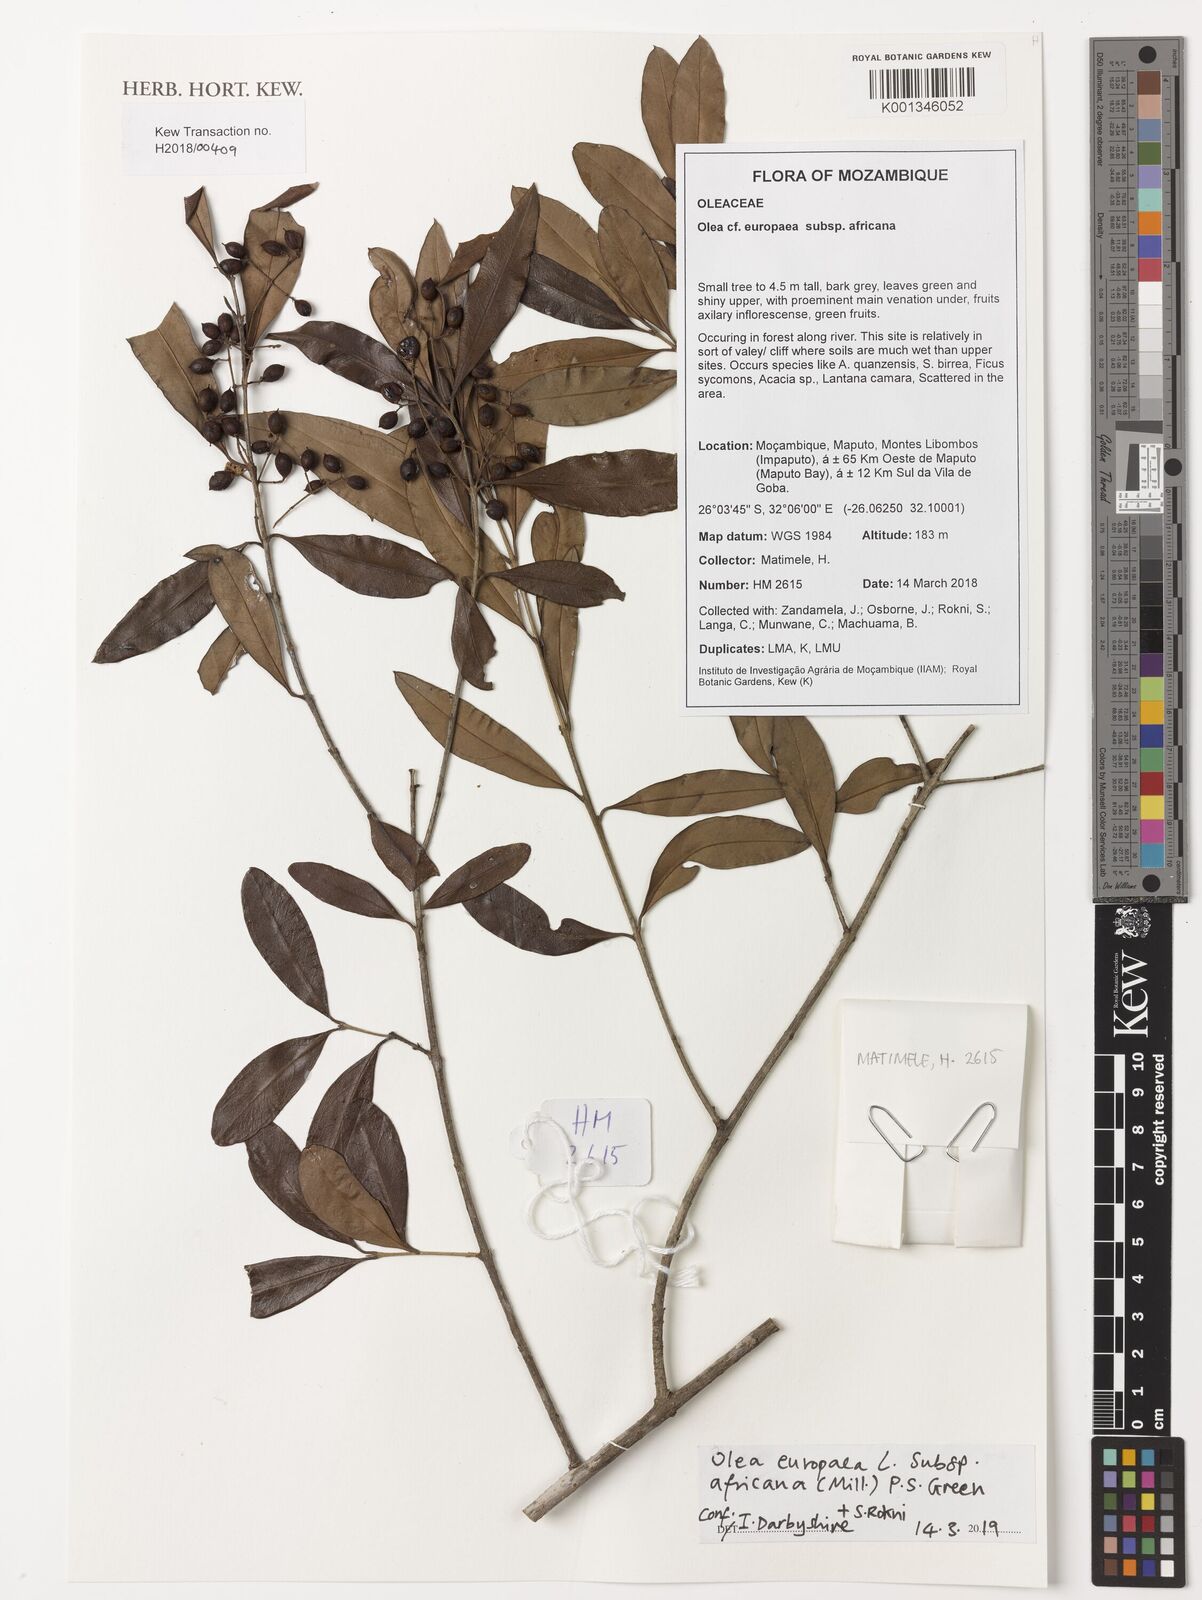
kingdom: Plantae
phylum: Tracheophyta
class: Magnoliopsida
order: Lamiales
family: Oleaceae
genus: Olea
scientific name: Olea europaea
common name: Olive
